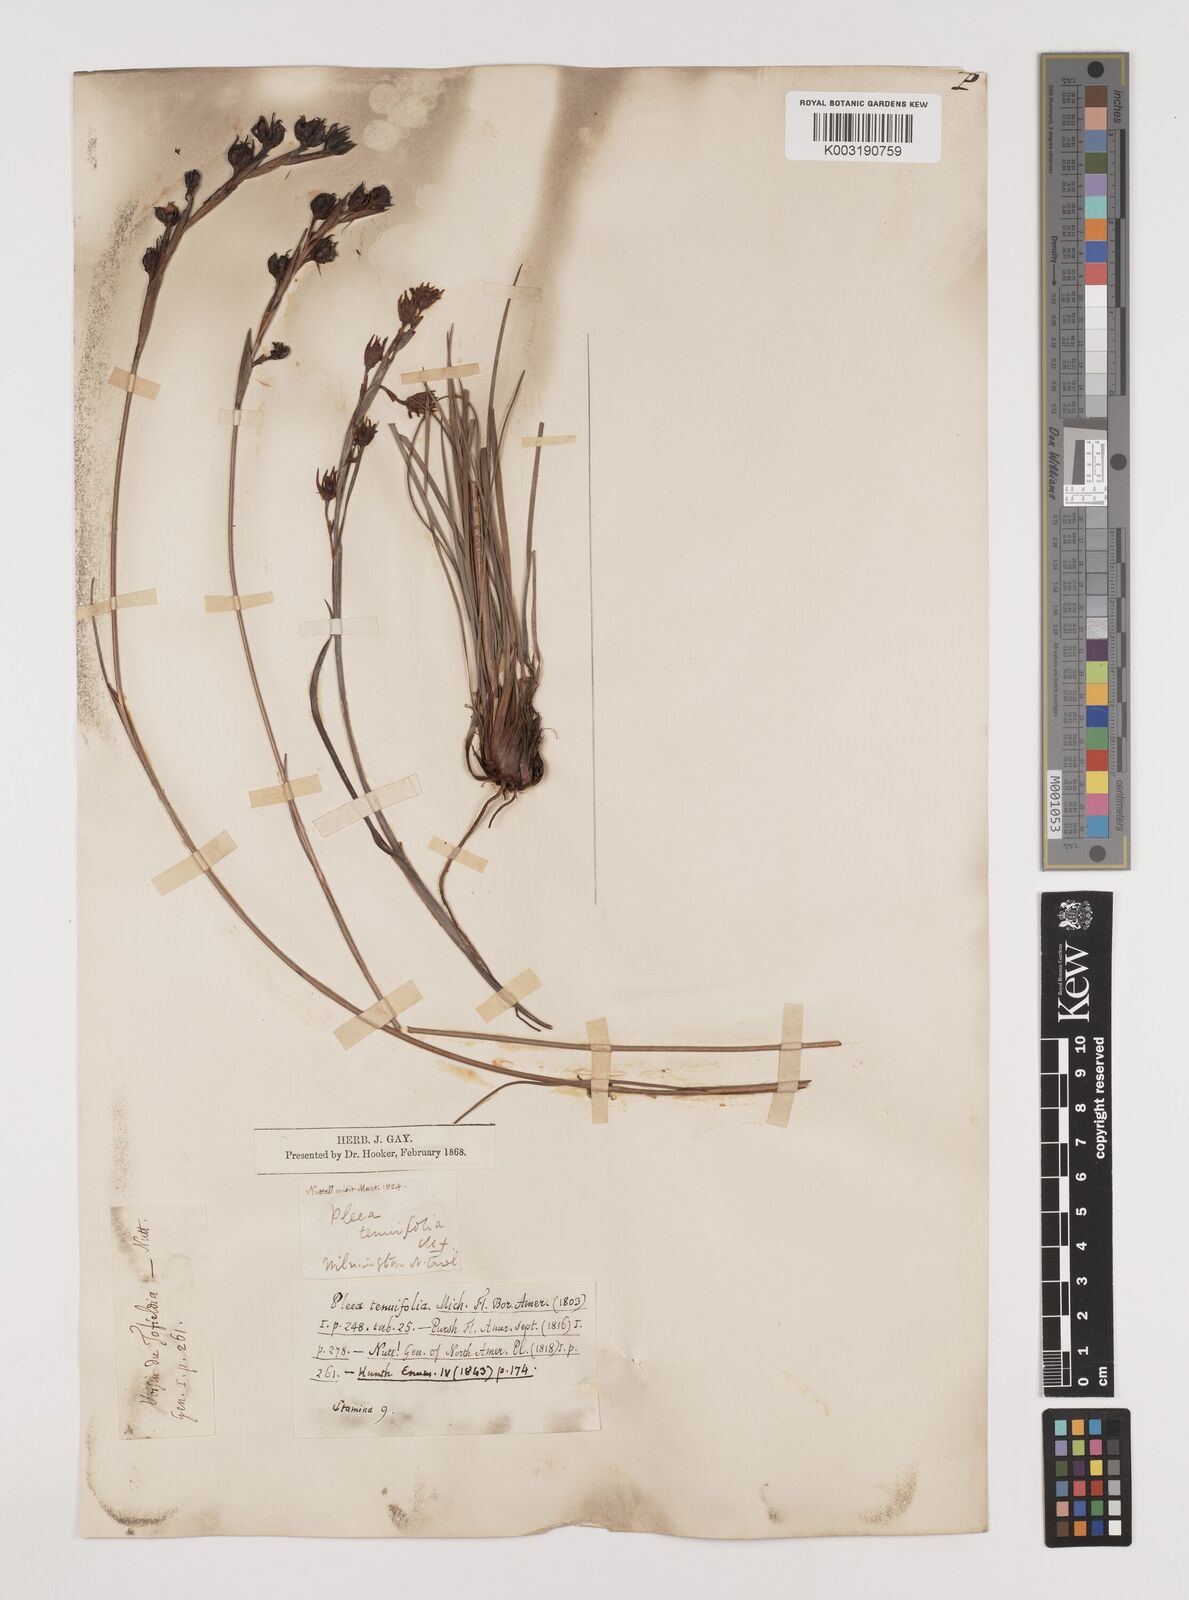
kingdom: Plantae
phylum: Tracheophyta
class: Liliopsida
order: Alismatales
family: Tofieldiaceae
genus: Pleea
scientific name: Pleea tenuifolia
